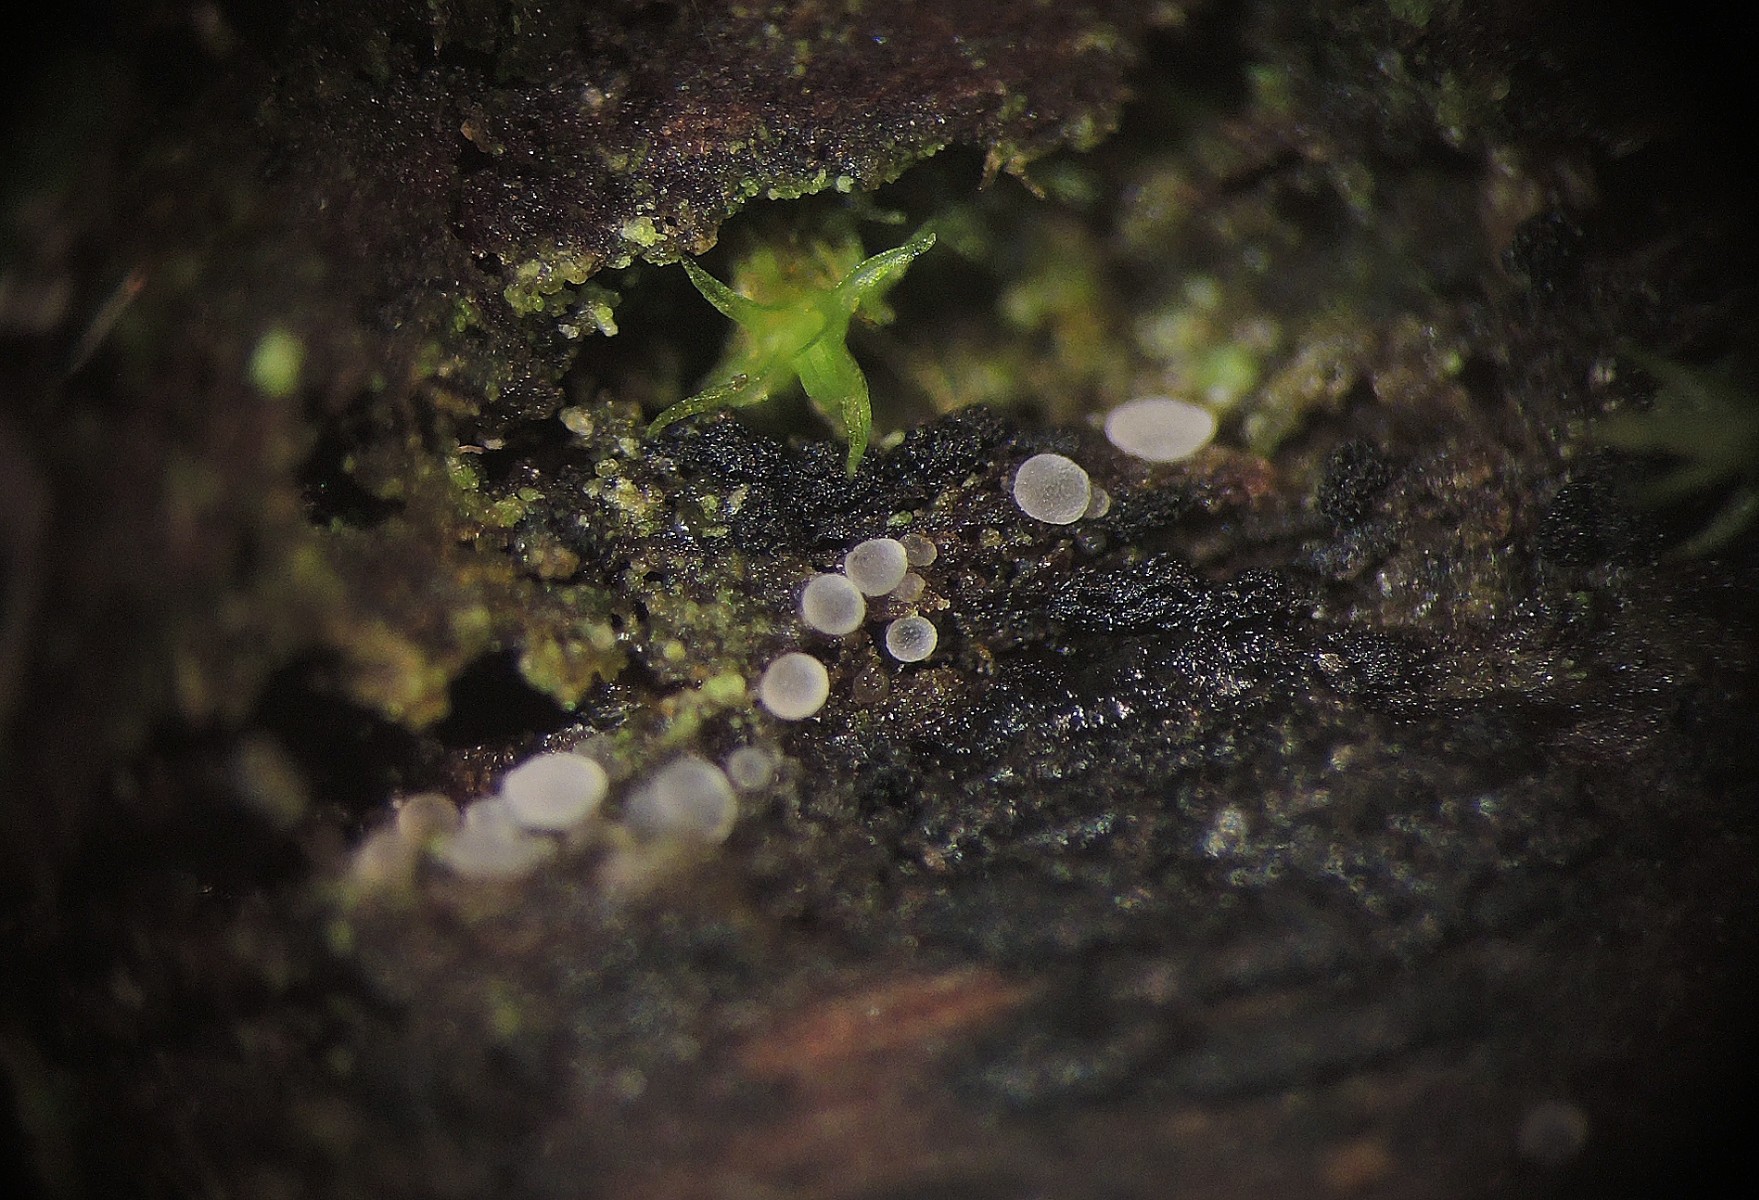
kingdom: Fungi
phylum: Ascomycota
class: Leotiomycetes
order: Helotiales
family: Hyaloscyphaceae
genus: Hyaloscypha
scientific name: Hyaloscypha minuta
